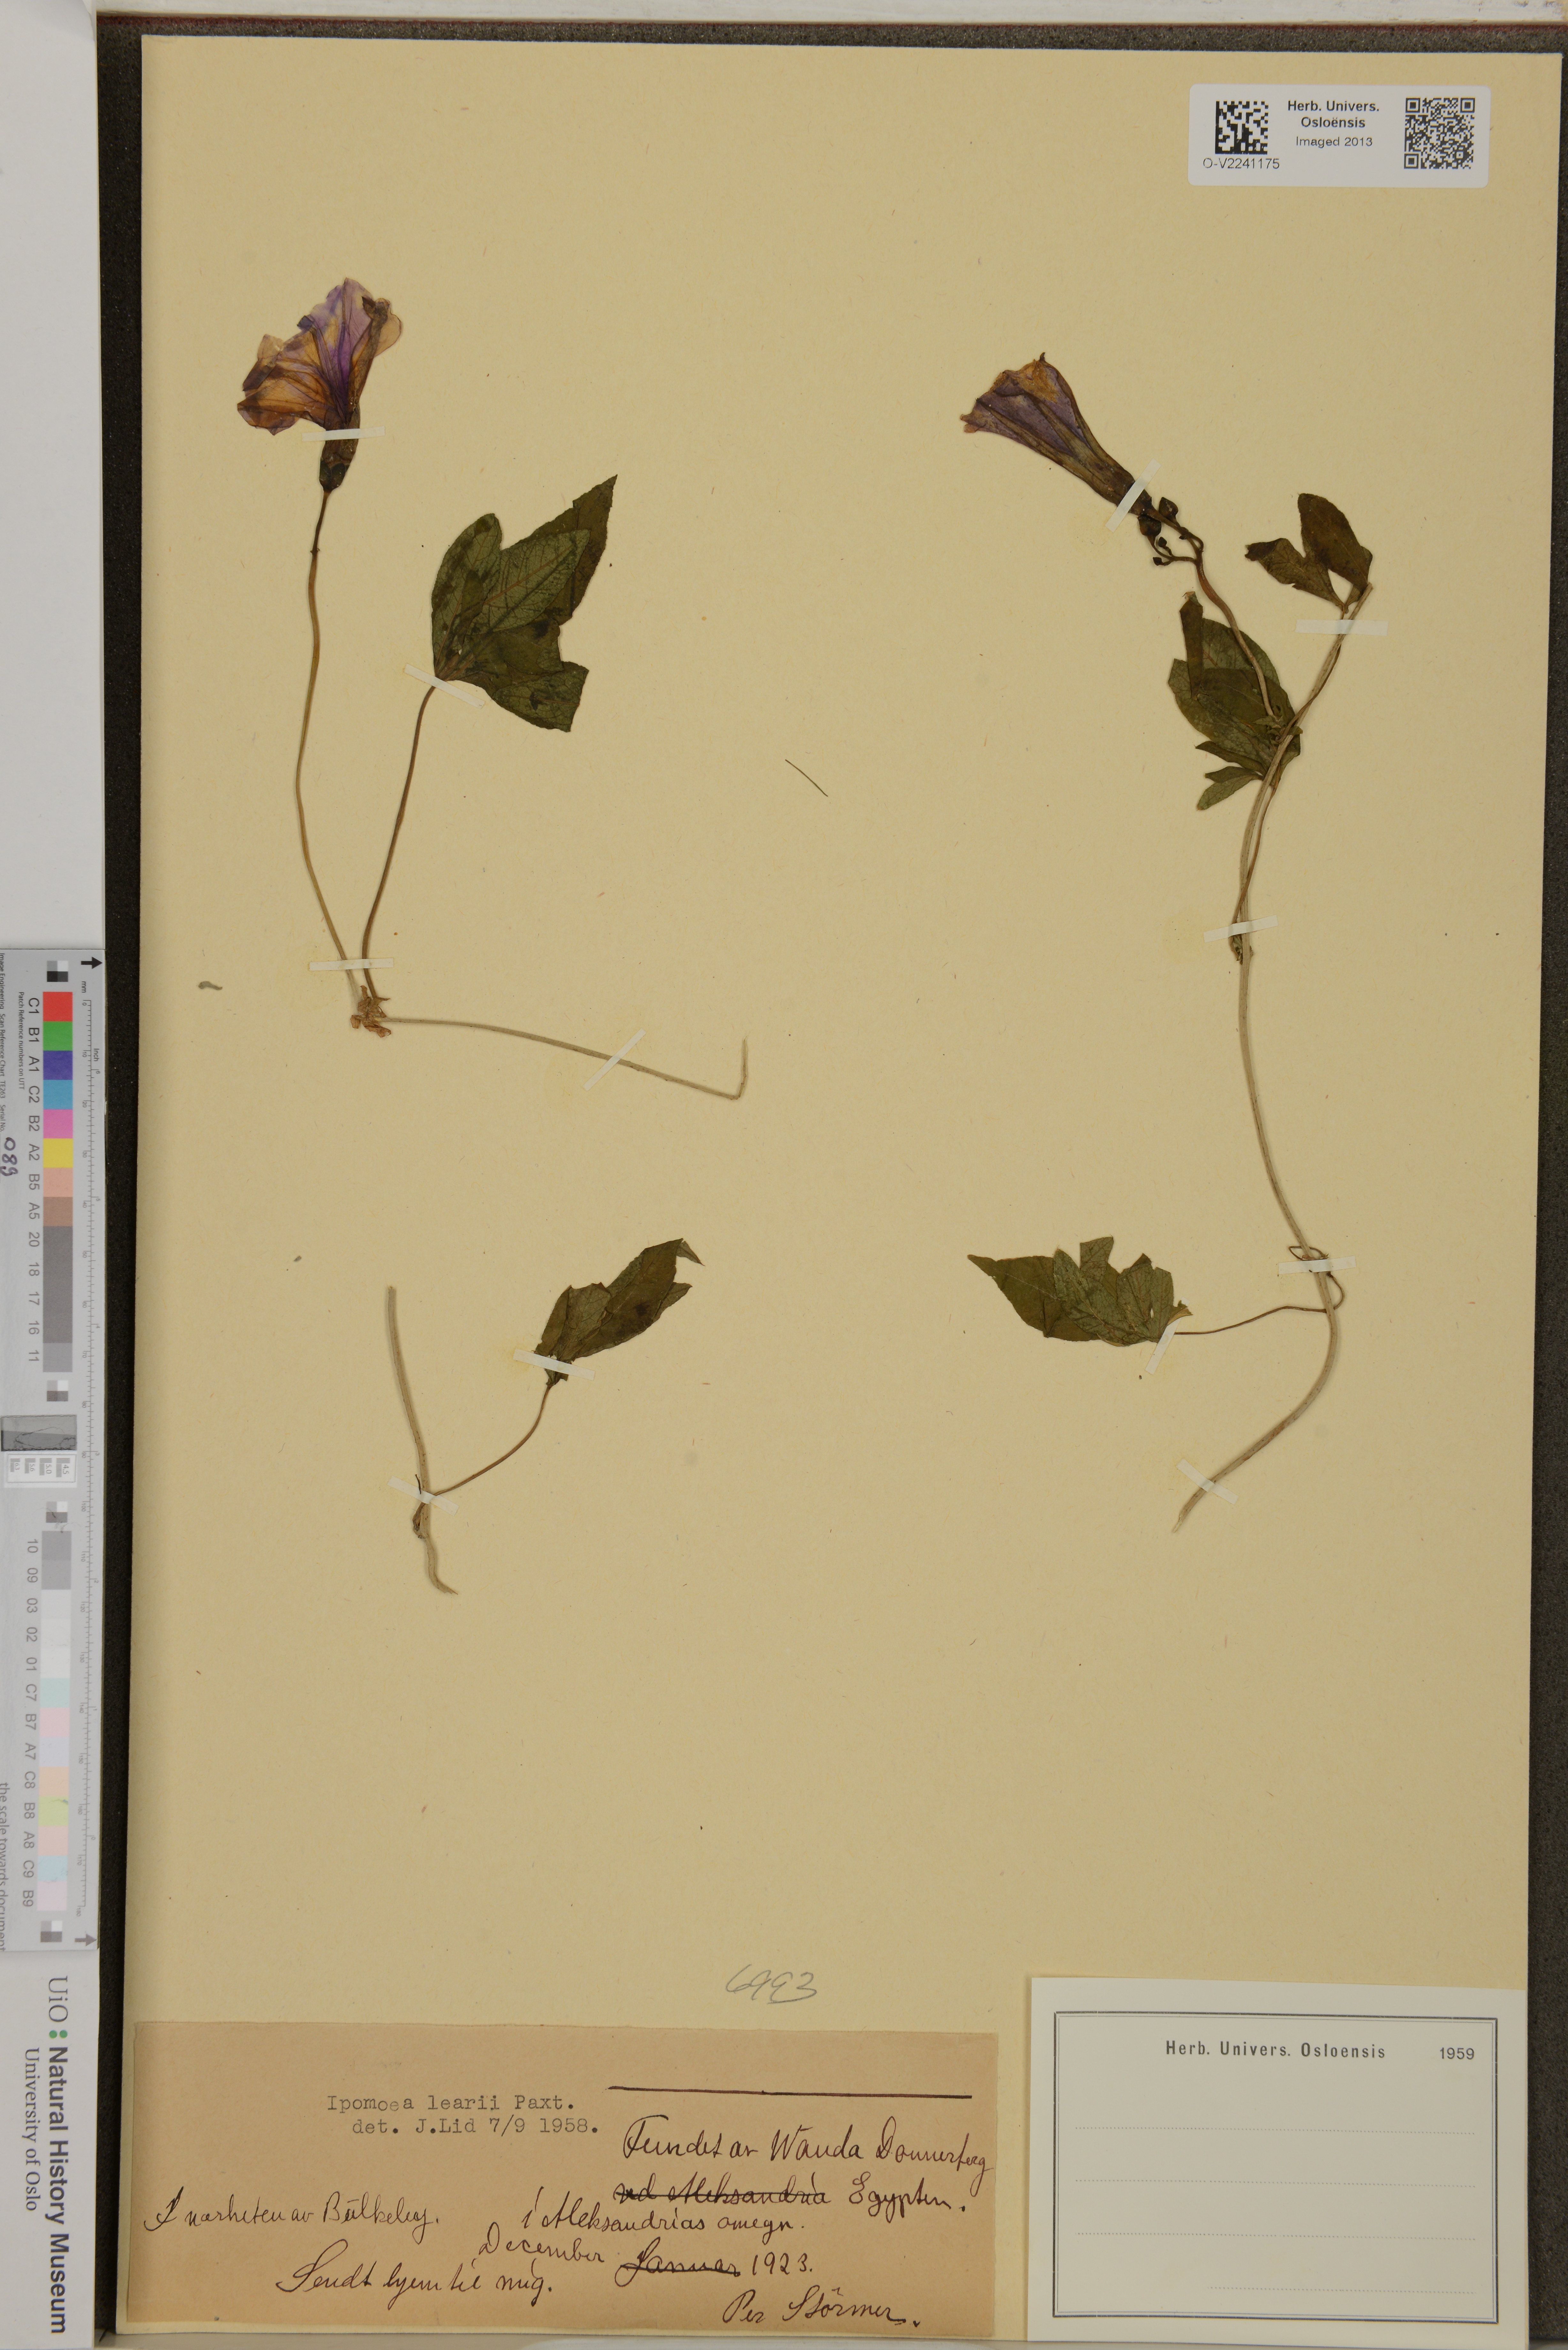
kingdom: Plantae
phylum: Tracheophyta
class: Magnoliopsida
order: Solanales
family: Convolvulaceae
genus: Ipomoea
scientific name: Ipomoea indica
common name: Blue dawnflower
